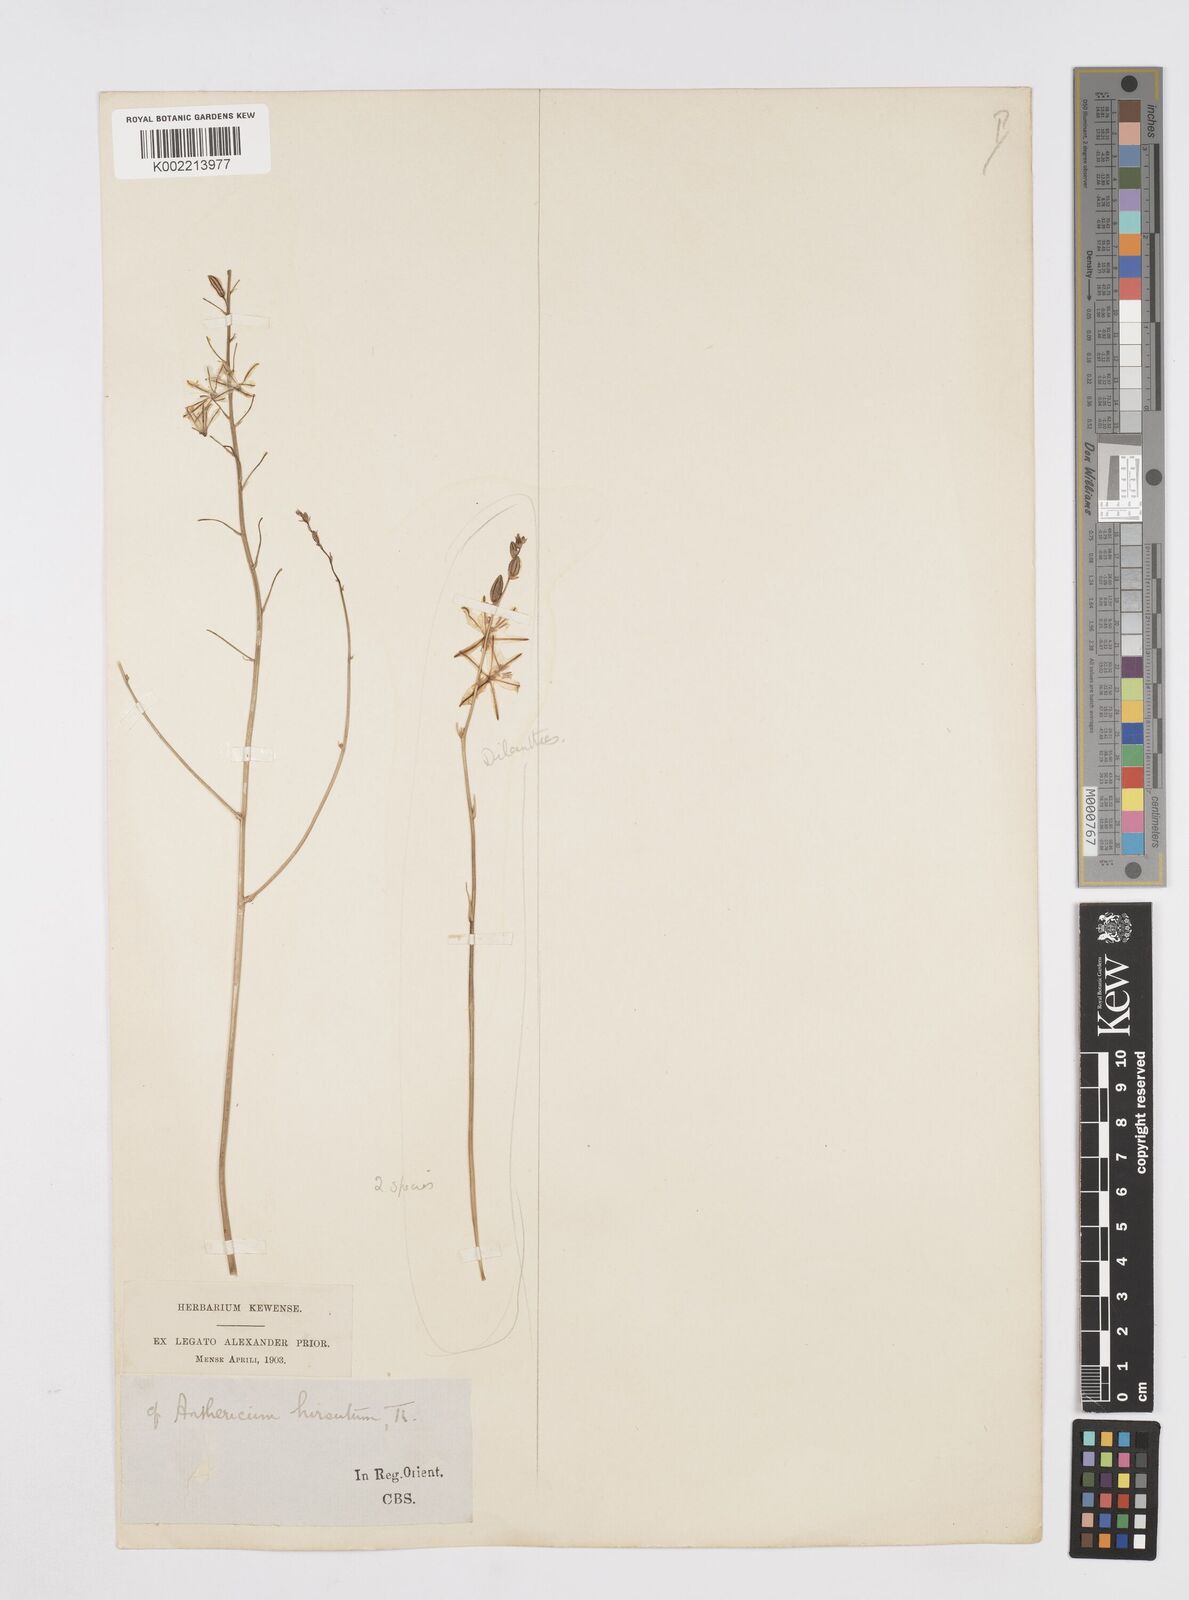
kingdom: Plantae
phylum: Tracheophyta
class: Liliopsida
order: Asparagales
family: Asphodelaceae
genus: Trachyandra
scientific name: Trachyandra asperata
